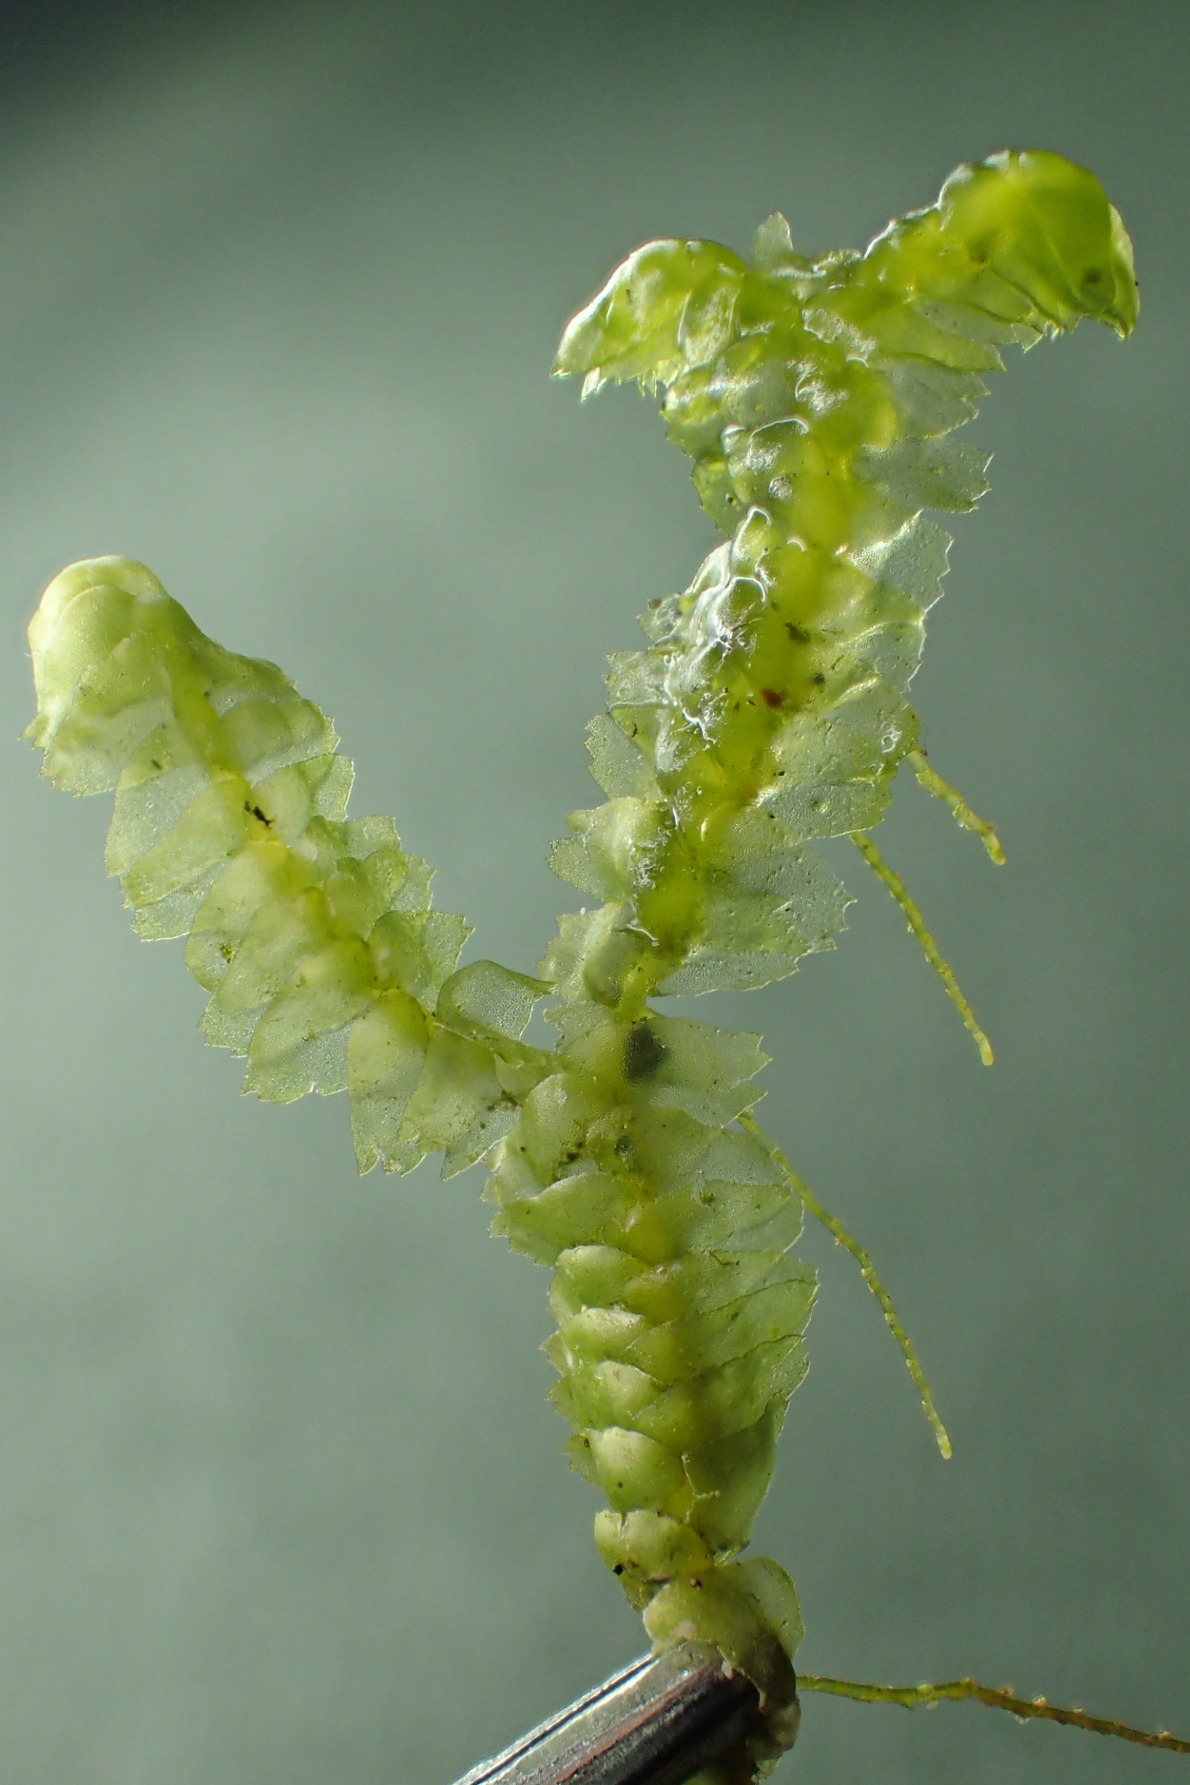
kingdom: Plantae
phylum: Marchantiophyta
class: Jungermanniopsida
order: Jungermanniales
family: Lepidoziaceae
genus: Bazzania
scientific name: Bazzania trilobata
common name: Stor styltemos
